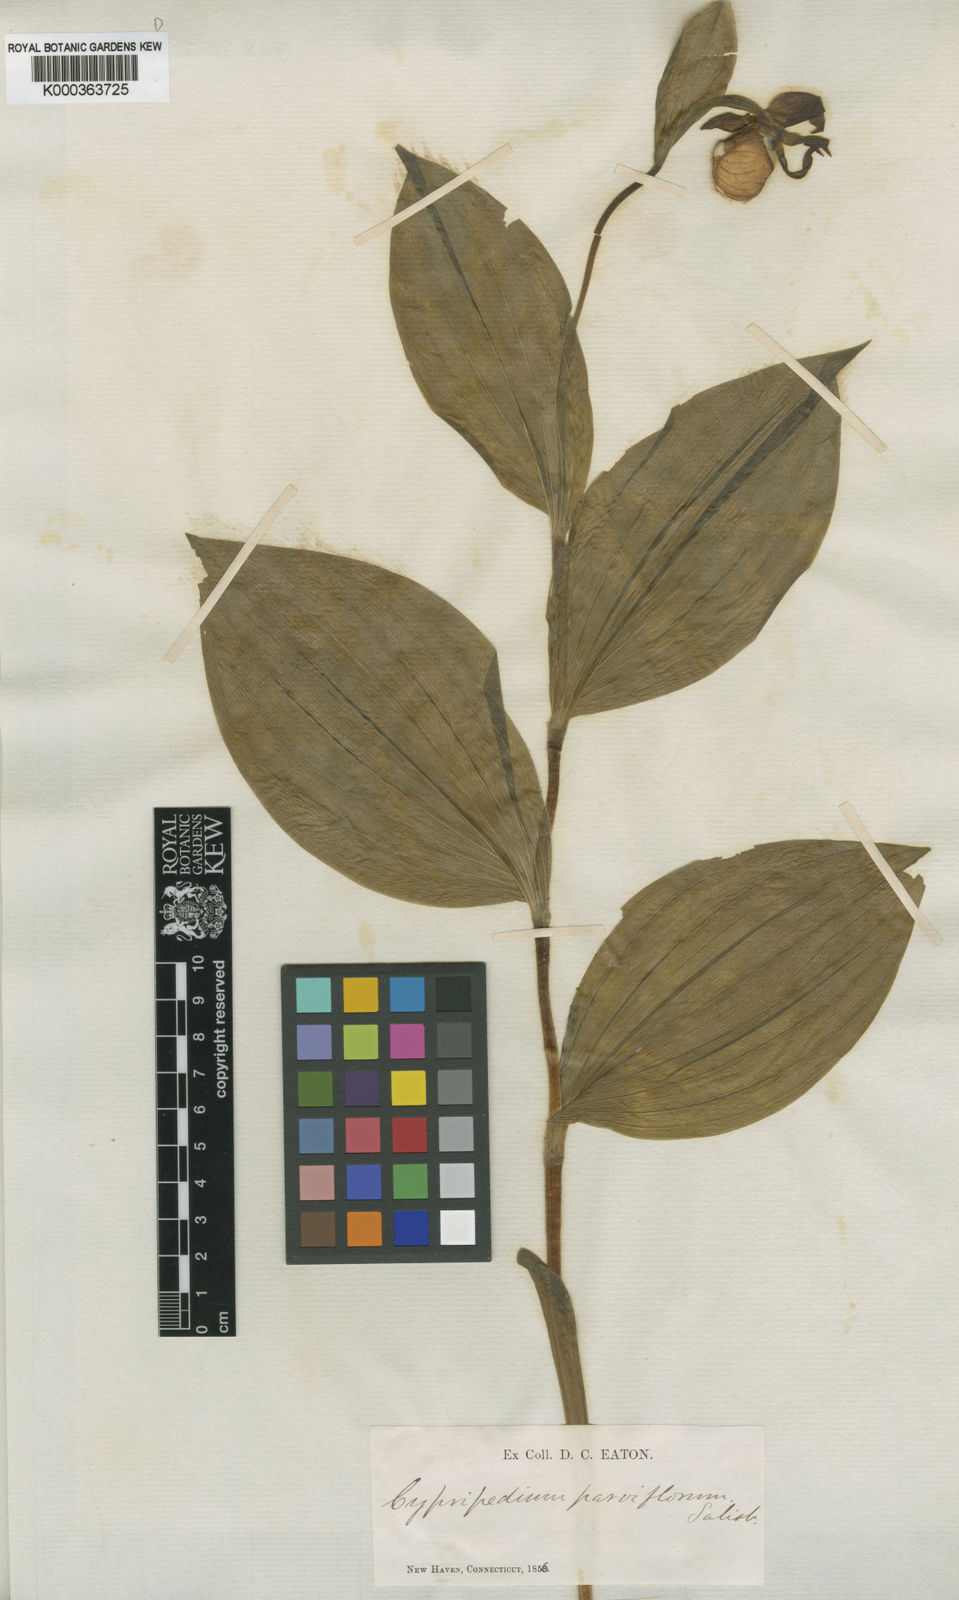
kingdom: Plantae
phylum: Tracheophyta
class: Liliopsida
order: Asparagales
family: Orchidaceae
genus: Cypripedium
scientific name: Cypripedium parviflorum
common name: American yellow lady's-slipper
